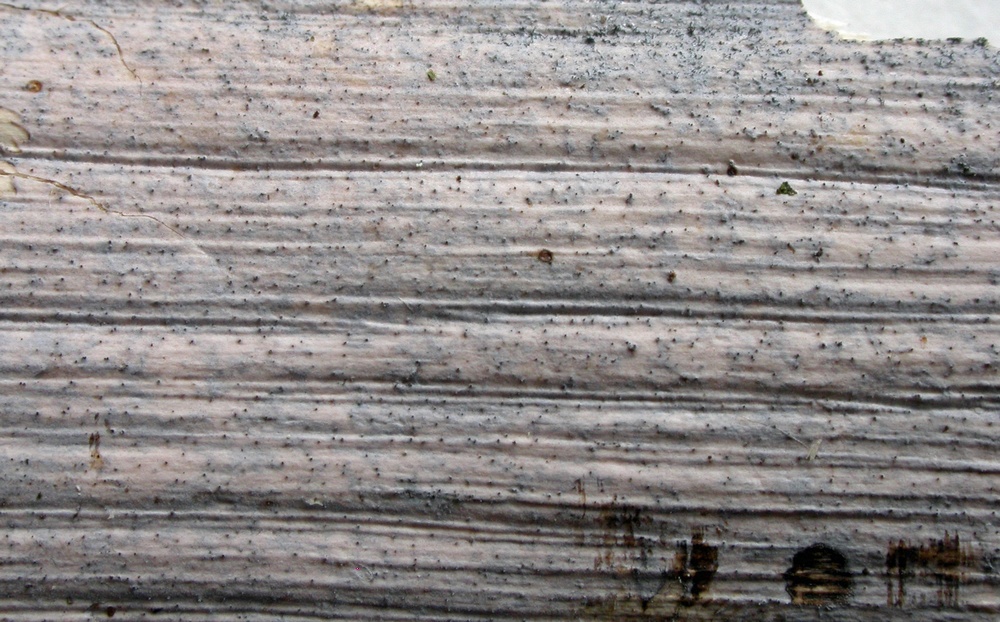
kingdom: Fungi
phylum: Basidiomycota
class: Tremellomycetes
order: Tremellales
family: Exidiaceae
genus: Exidiopsis
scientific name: Exidiopsis effusa
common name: smuk bævrehinde
